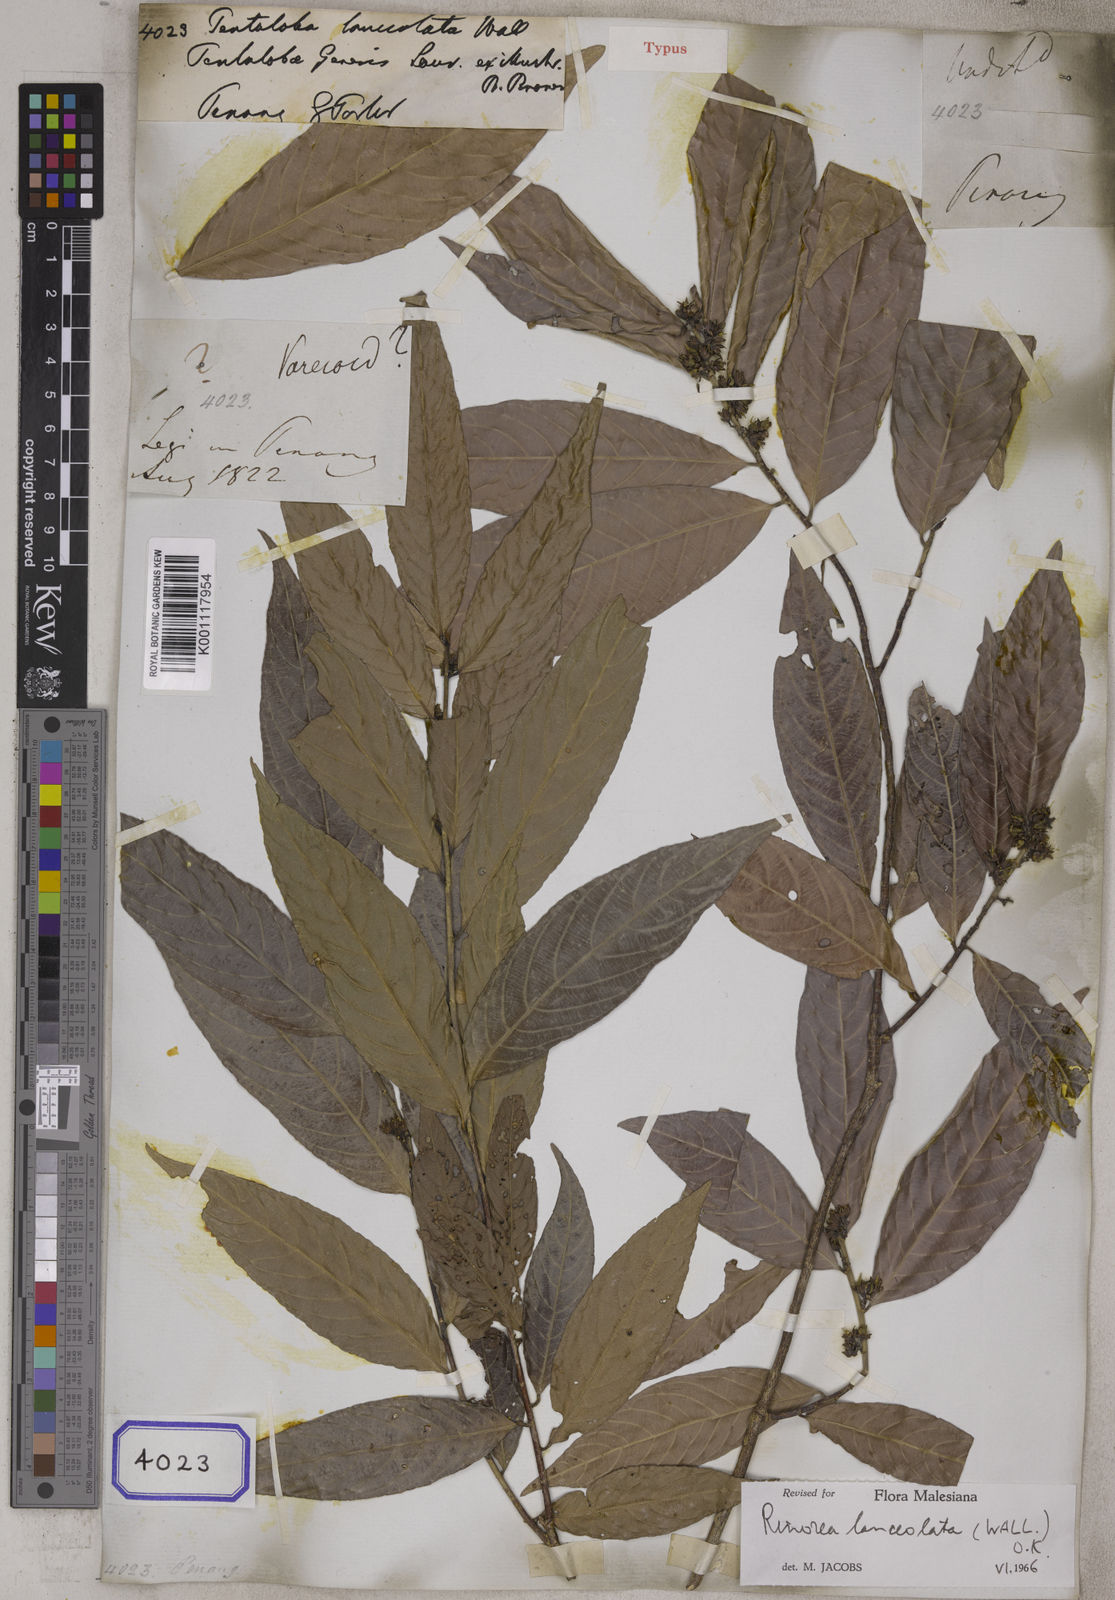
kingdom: Plantae
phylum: Tracheophyta
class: Magnoliopsida
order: Malpighiales
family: Violaceae
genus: Rinorea
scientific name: Rinorea lanceolata
